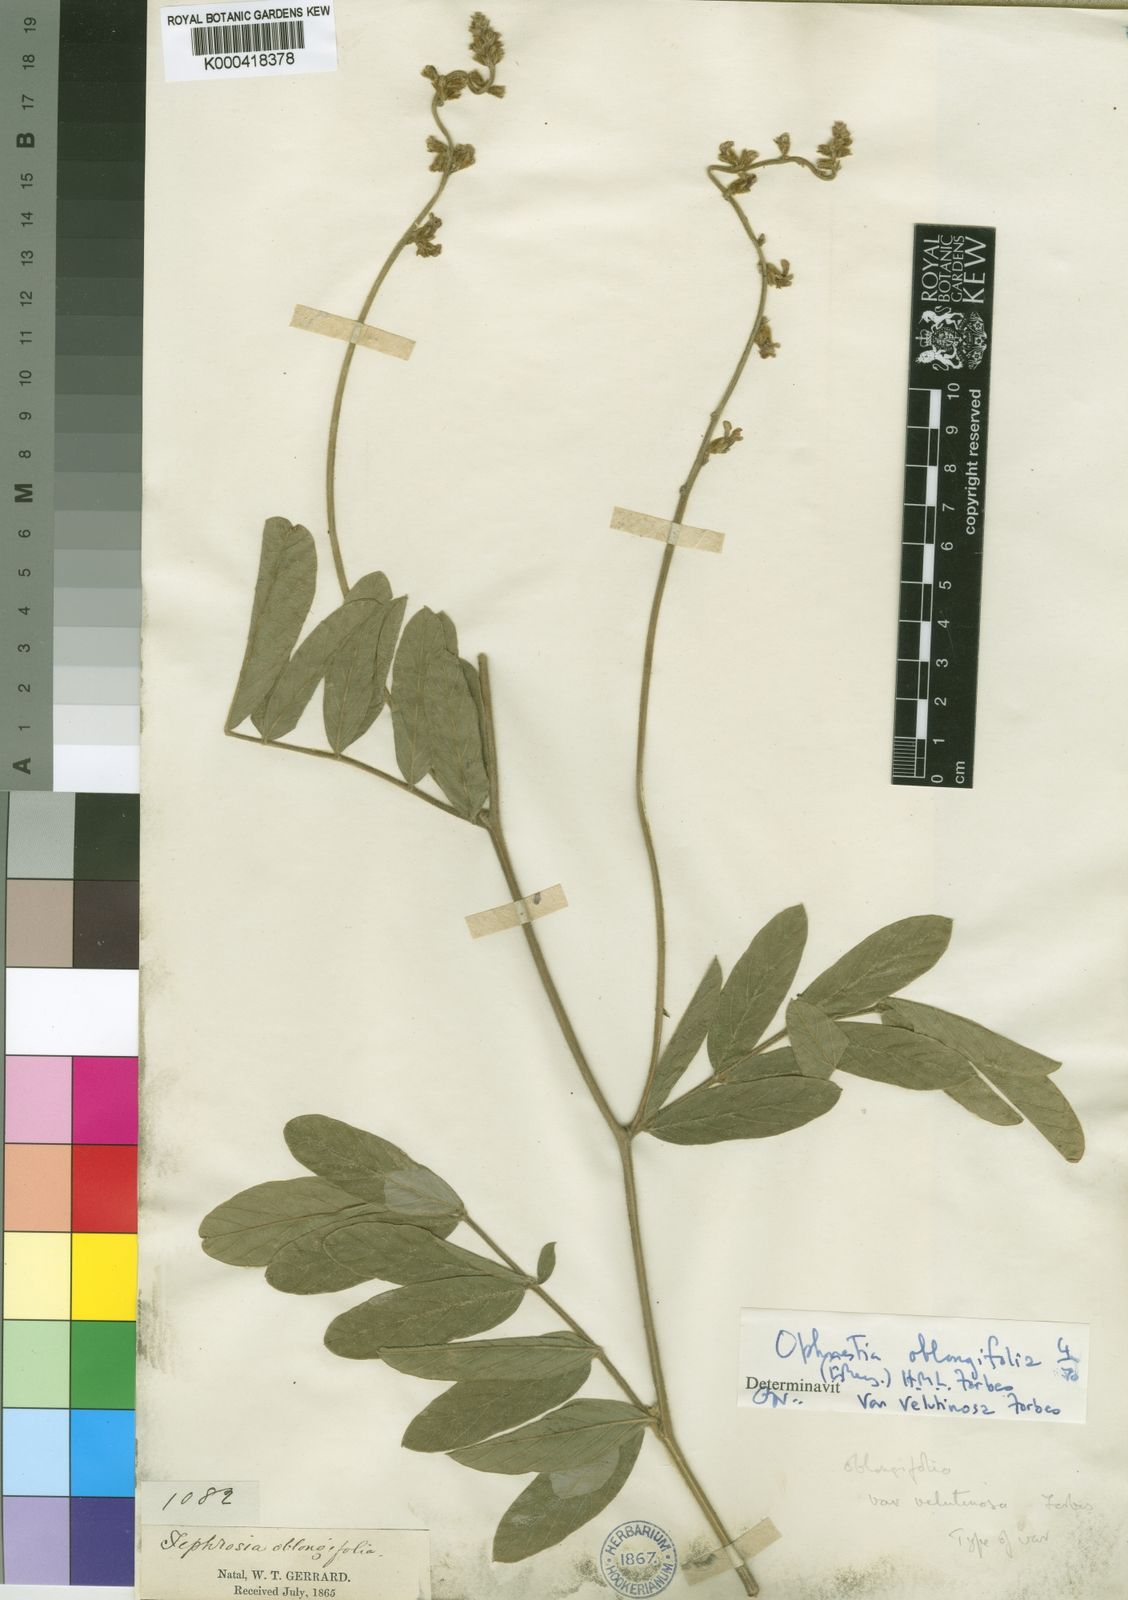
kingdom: Plantae
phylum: Tracheophyta
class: Magnoliopsida
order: Fabales
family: Fabaceae
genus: Ophrestia
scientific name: Ophrestia oblongifolia
